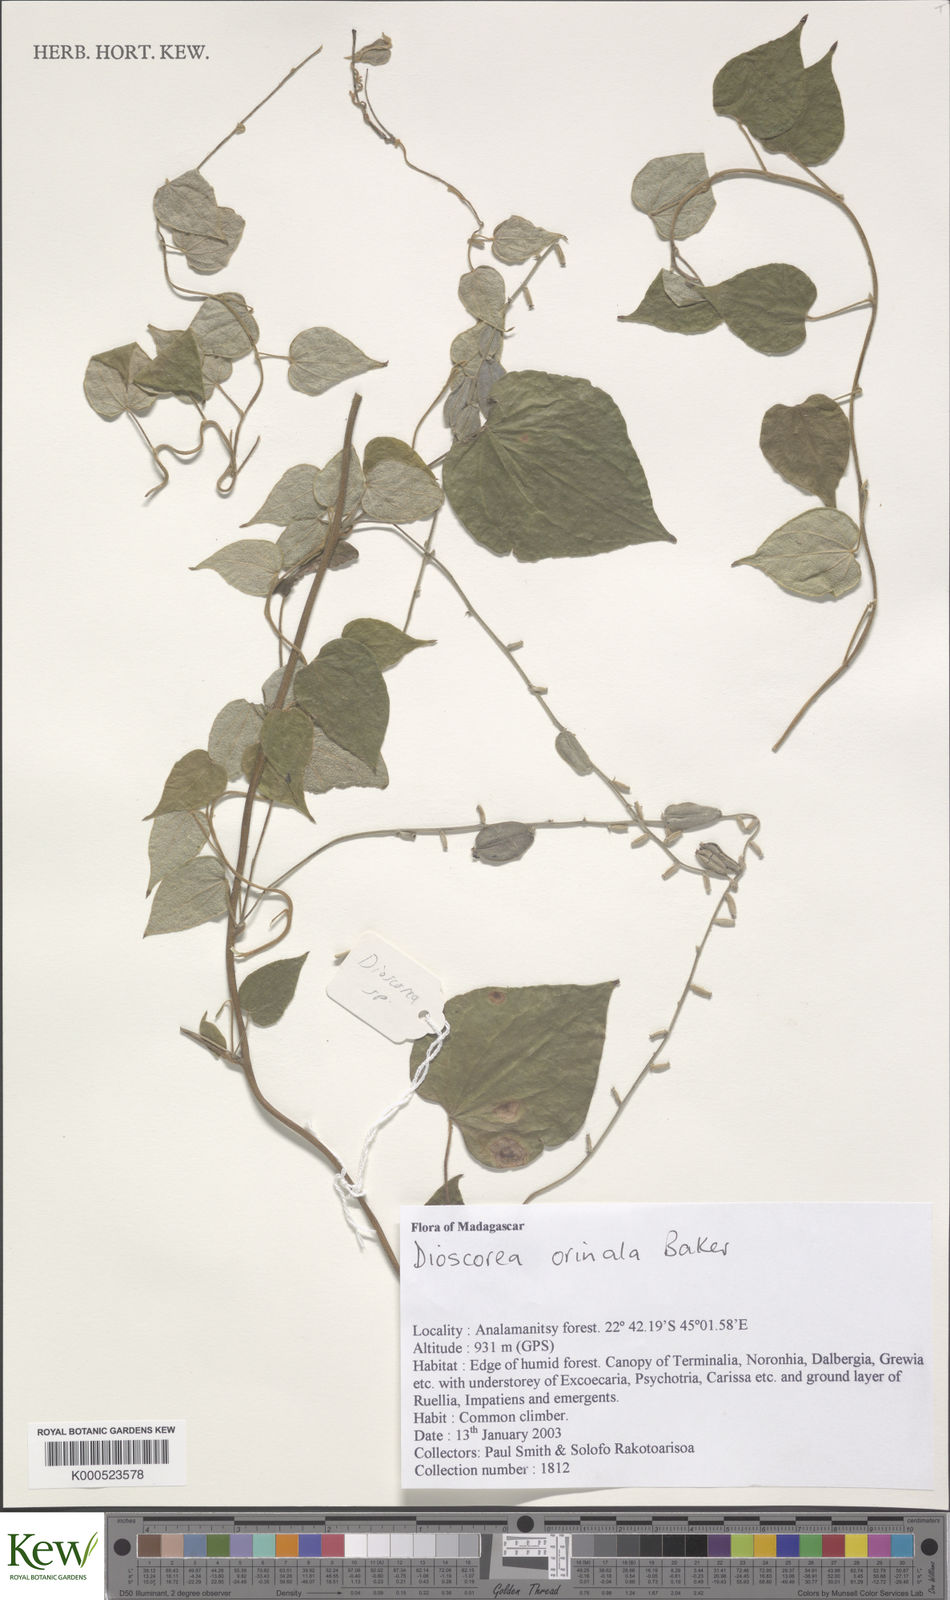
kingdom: Plantae
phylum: Tracheophyta
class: Liliopsida
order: Dioscoreales
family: Dioscoreaceae
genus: Dioscorea
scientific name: Dioscorea ovinala
